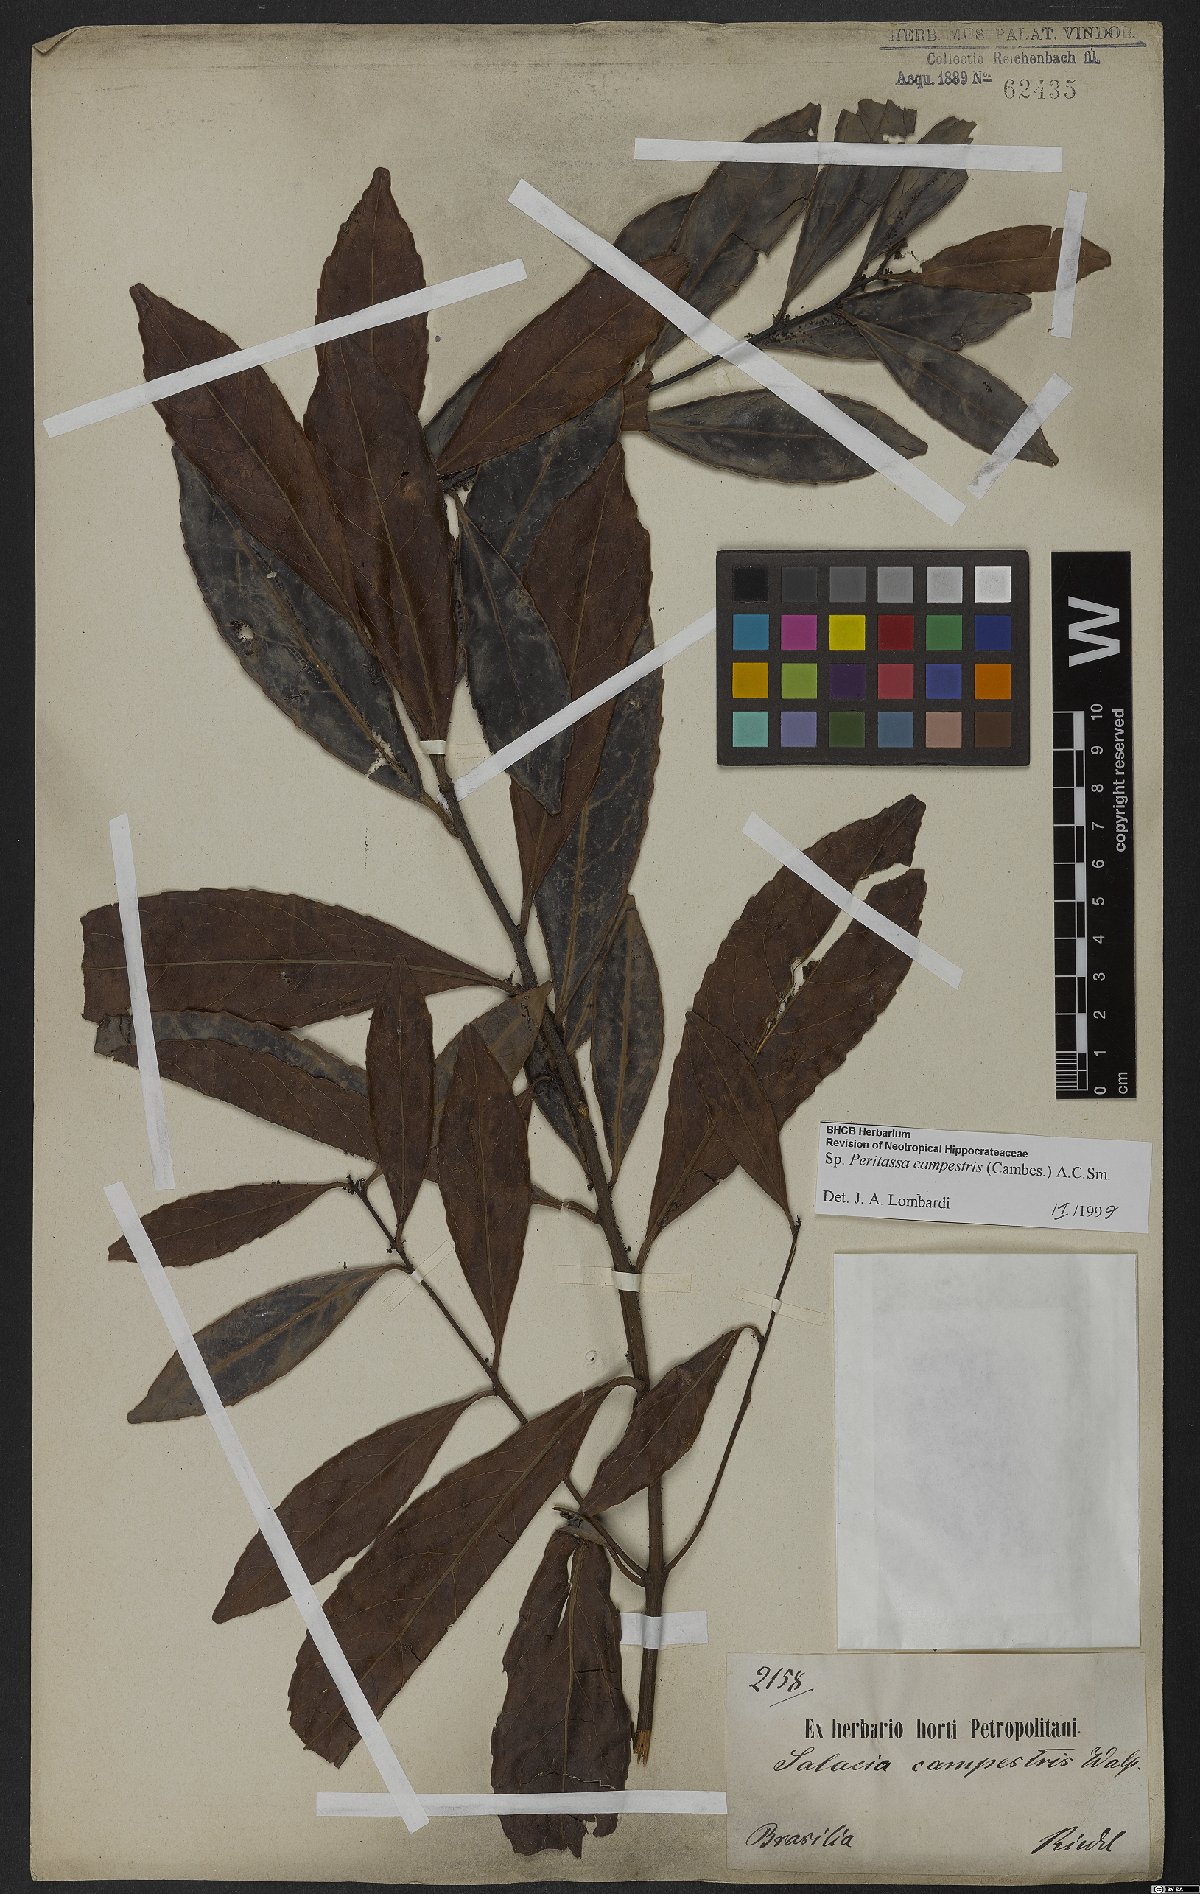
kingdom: Plantae
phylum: Tracheophyta
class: Magnoliopsida
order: Celastrales
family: Celastraceae
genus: Peritassa
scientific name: Peritassa campestris
